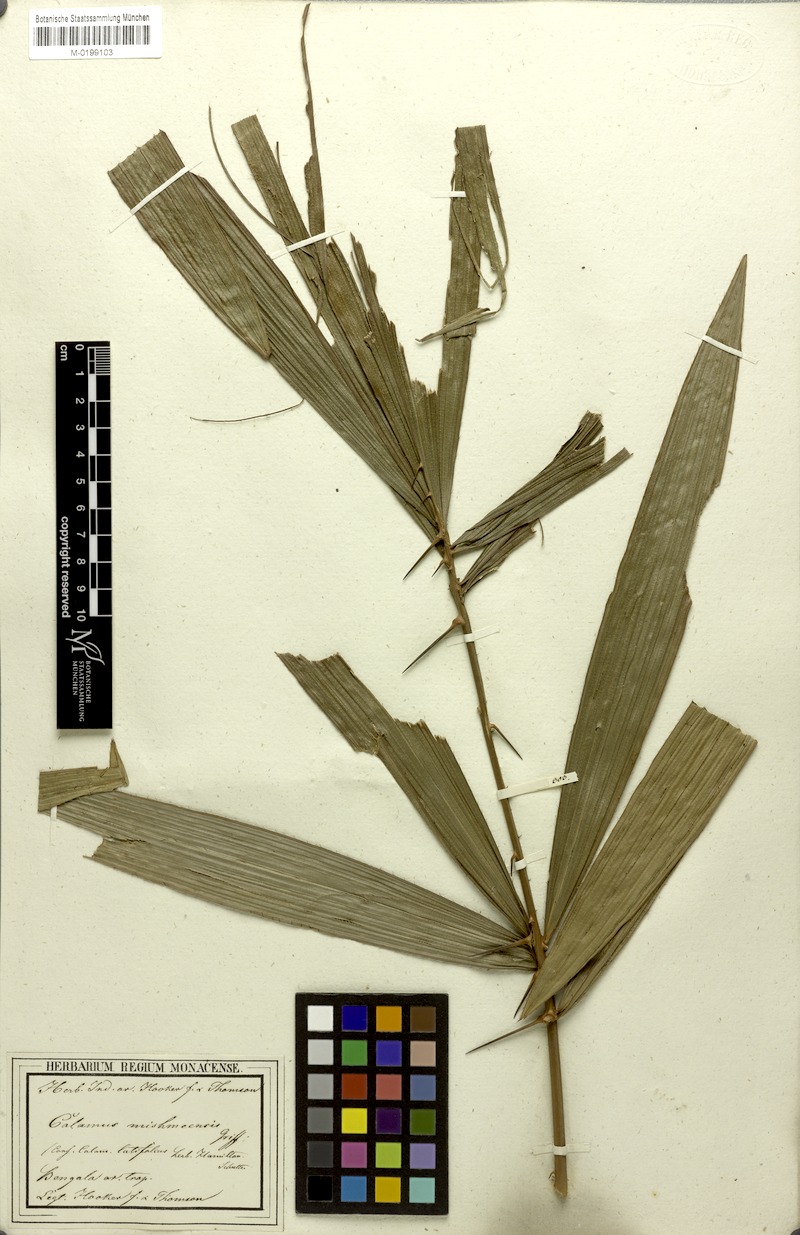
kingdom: Plantae
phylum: Tracheophyta
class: Liliopsida
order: Arecales
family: Arecaceae
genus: Calamus
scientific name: Calamus floribundus
